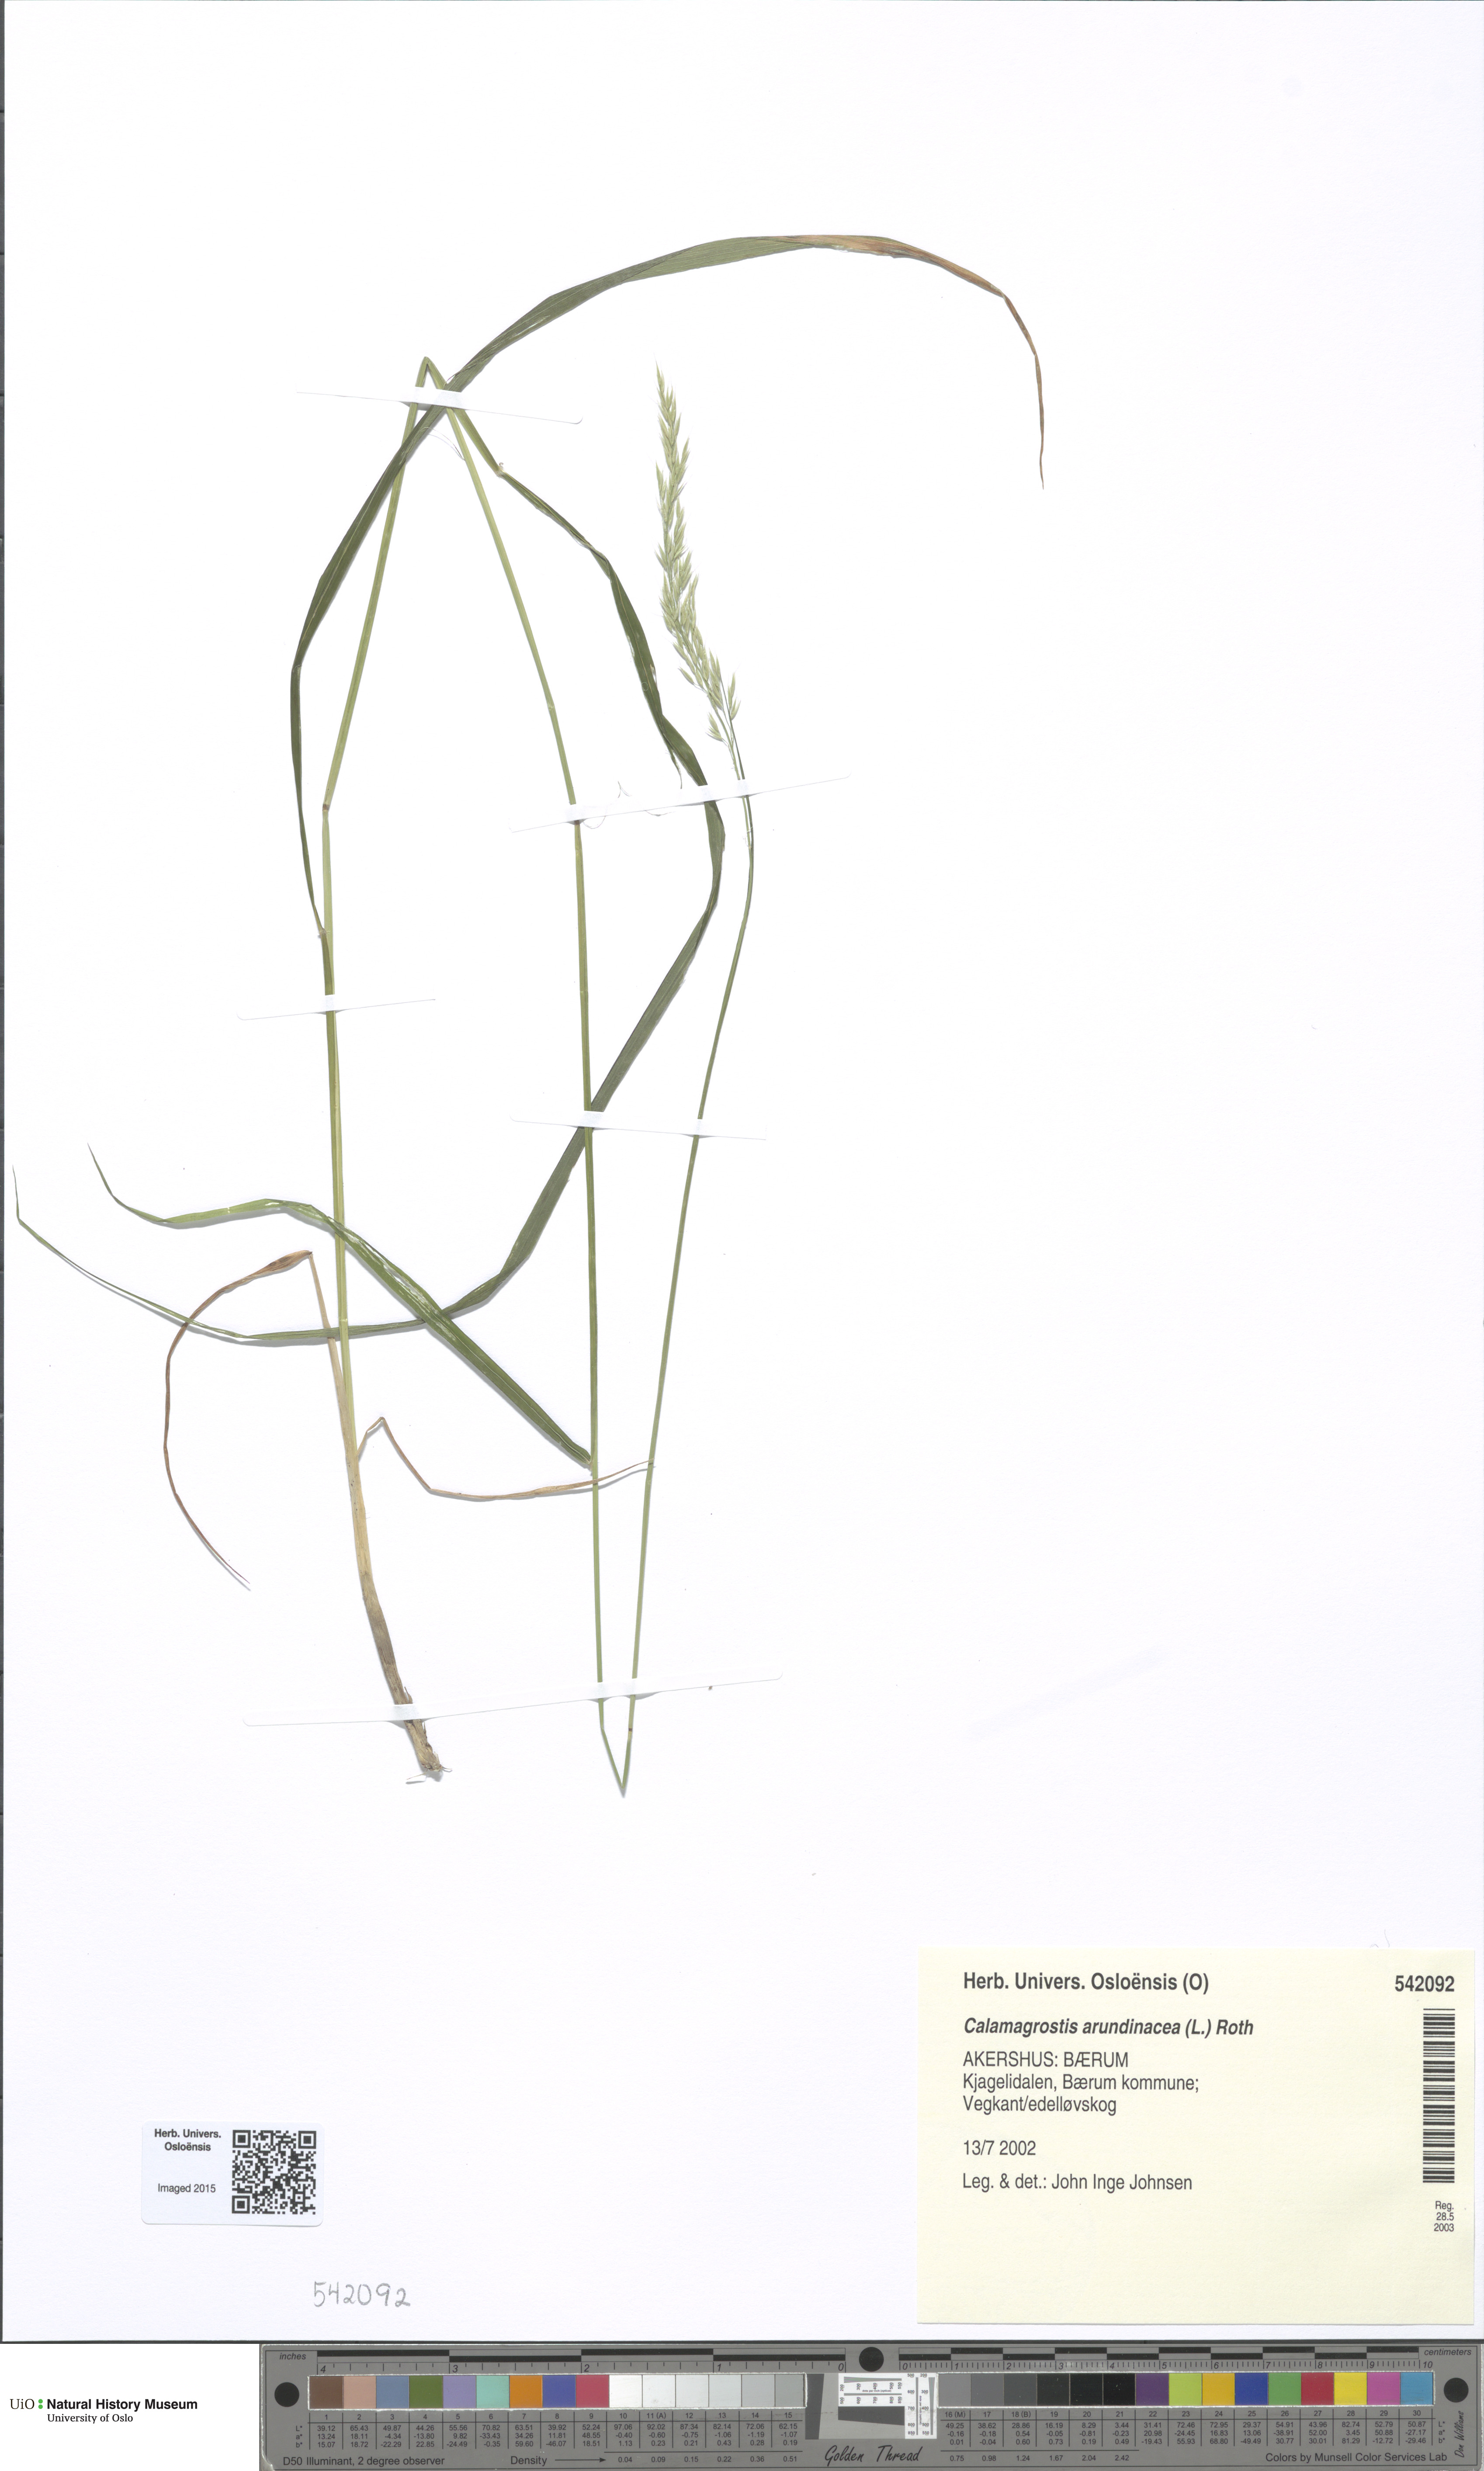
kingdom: Plantae
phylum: Tracheophyta
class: Liliopsida
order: Poales
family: Poaceae
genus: Calamagrostis
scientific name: Calamagrostis arundinacea
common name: Metskastik
